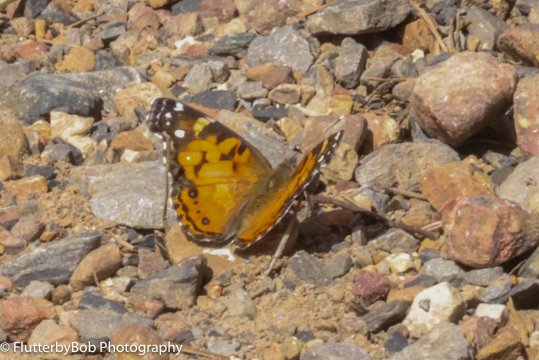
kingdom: Animalia
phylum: Arthropoda
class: Insecta
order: Lepidoptera
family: Nymphalidae
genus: Vanessa
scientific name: Vanessa virginiensis
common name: American Lady
